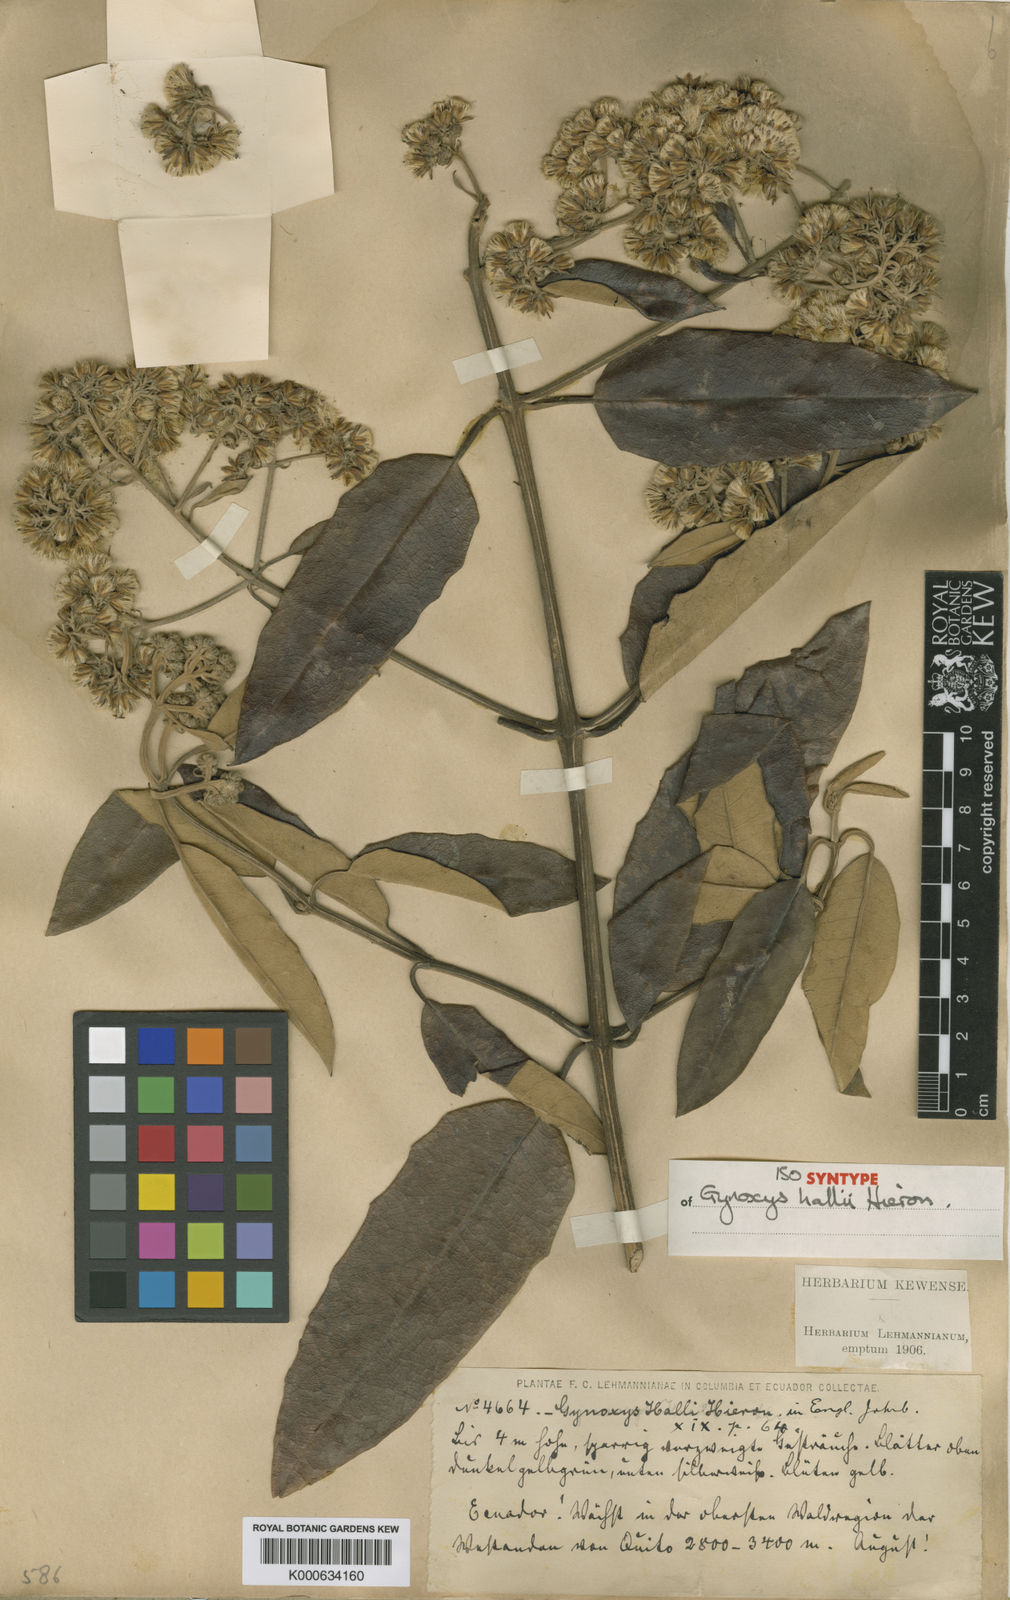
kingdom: Plantae
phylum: Tracheophyta
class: Magnoliopsida
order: Asterales
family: Asteraceae
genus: Gynoxys
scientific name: Gynoxys hallii
